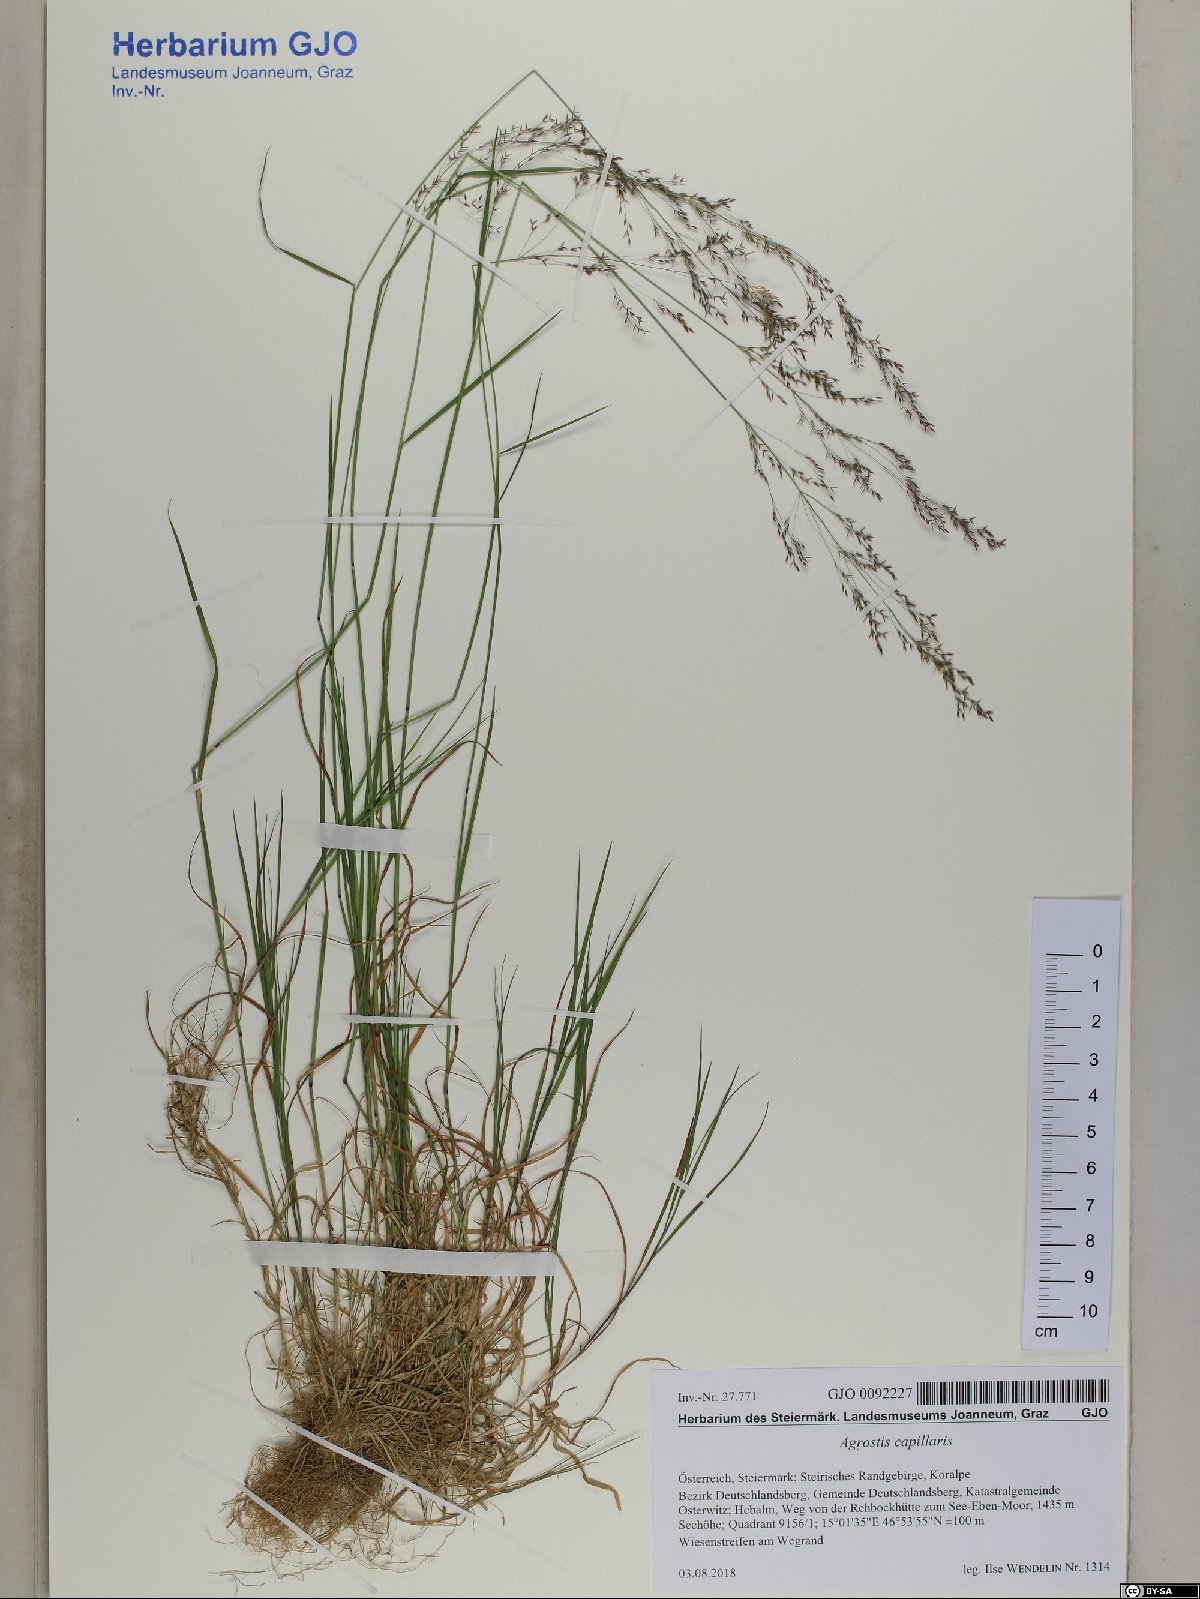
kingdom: Plantae
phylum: Tracheophyta
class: Liliopsida
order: Poales
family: Poaceae
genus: Agrostis
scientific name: Agrostis capillaris
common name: Colonial bentgrass
